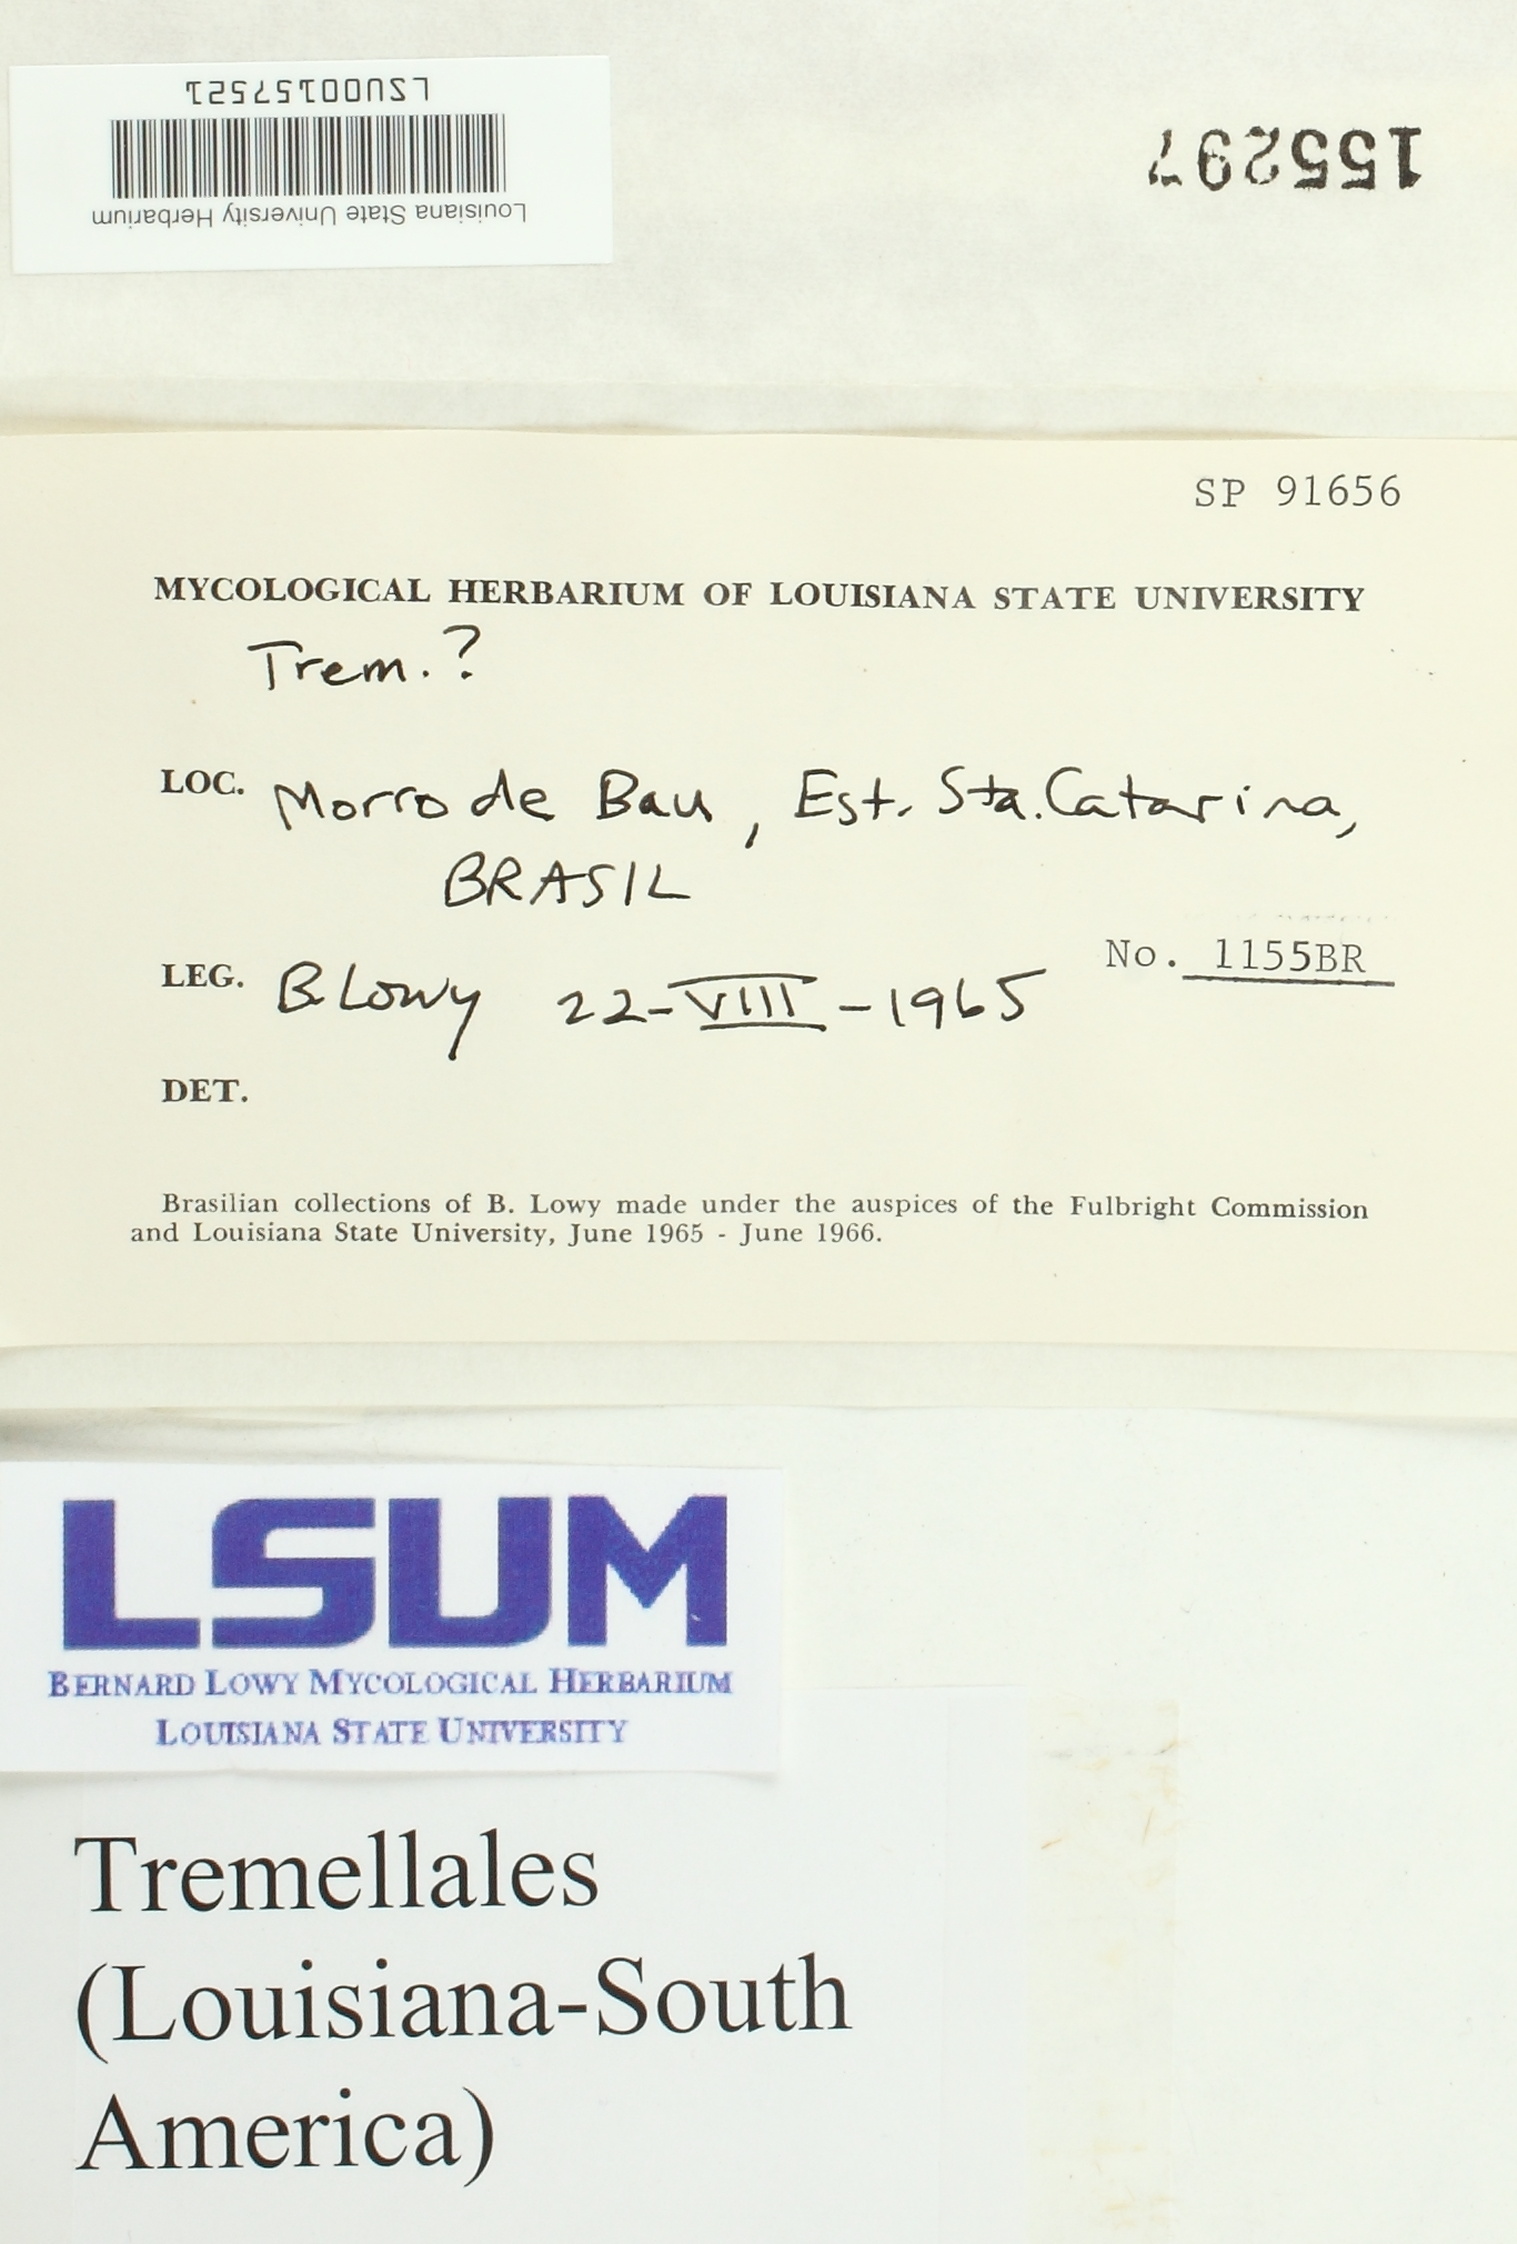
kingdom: Fungi
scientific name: Fungi
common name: Fungi
